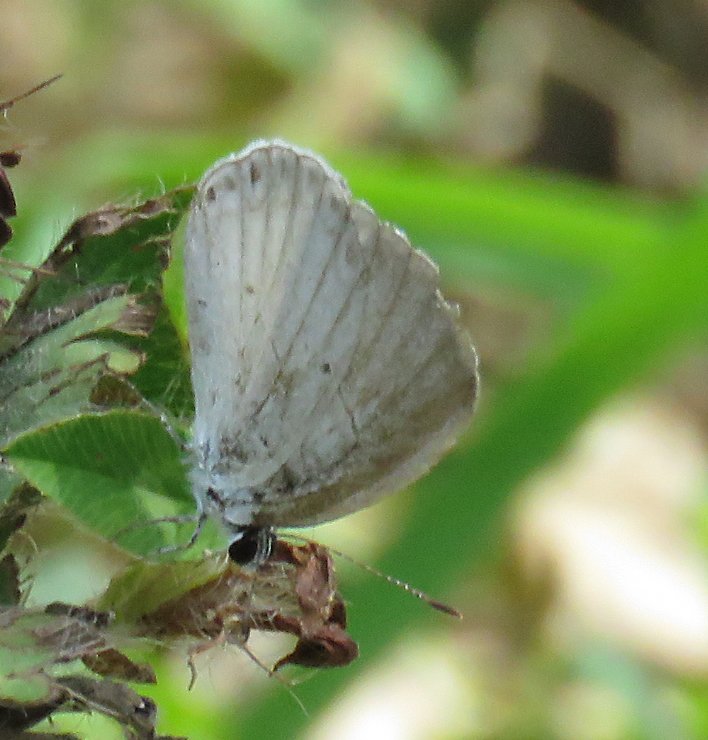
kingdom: Animalia
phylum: Arthropoda
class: Insecta
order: Lepidoptera
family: Lycaenidae
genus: Celastrina
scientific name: Celastrina
